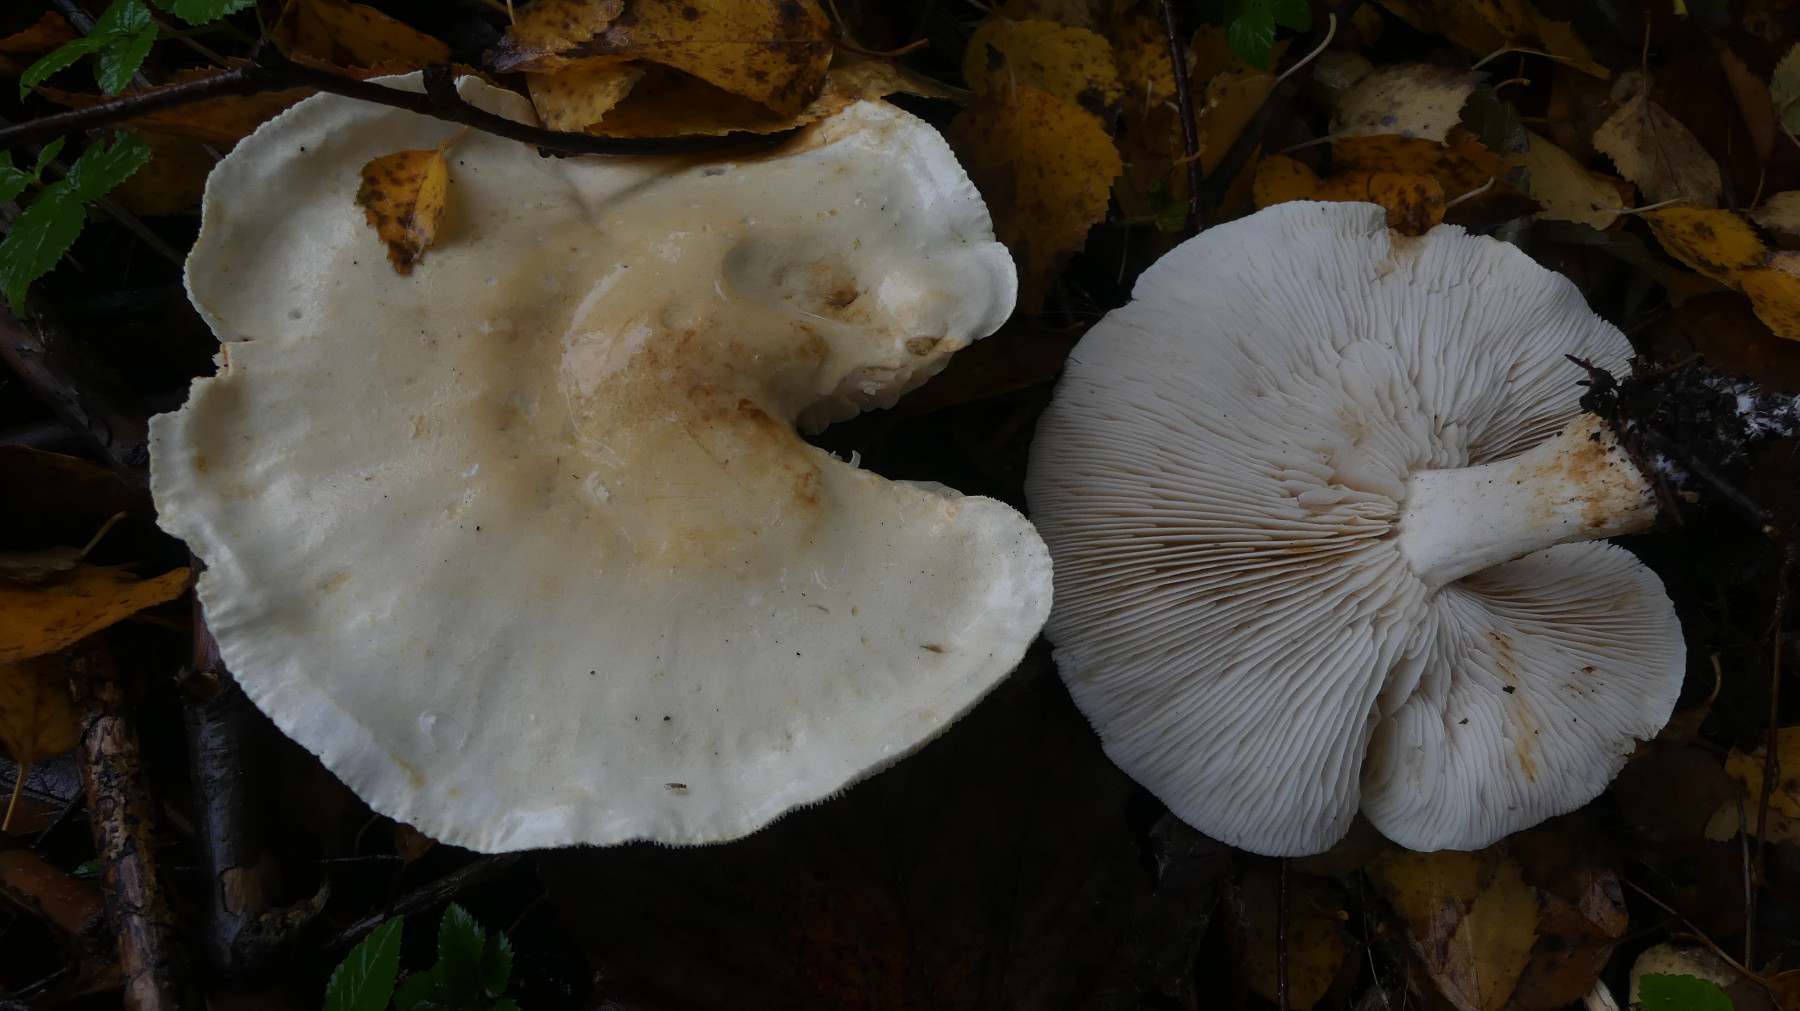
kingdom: Fungi
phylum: Basidiomycota
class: Agaricomycetes
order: Agaricales
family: Tricholomataceae
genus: Tricholoma
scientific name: Tricholoma stiparophyllum
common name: hvid ridderhat
